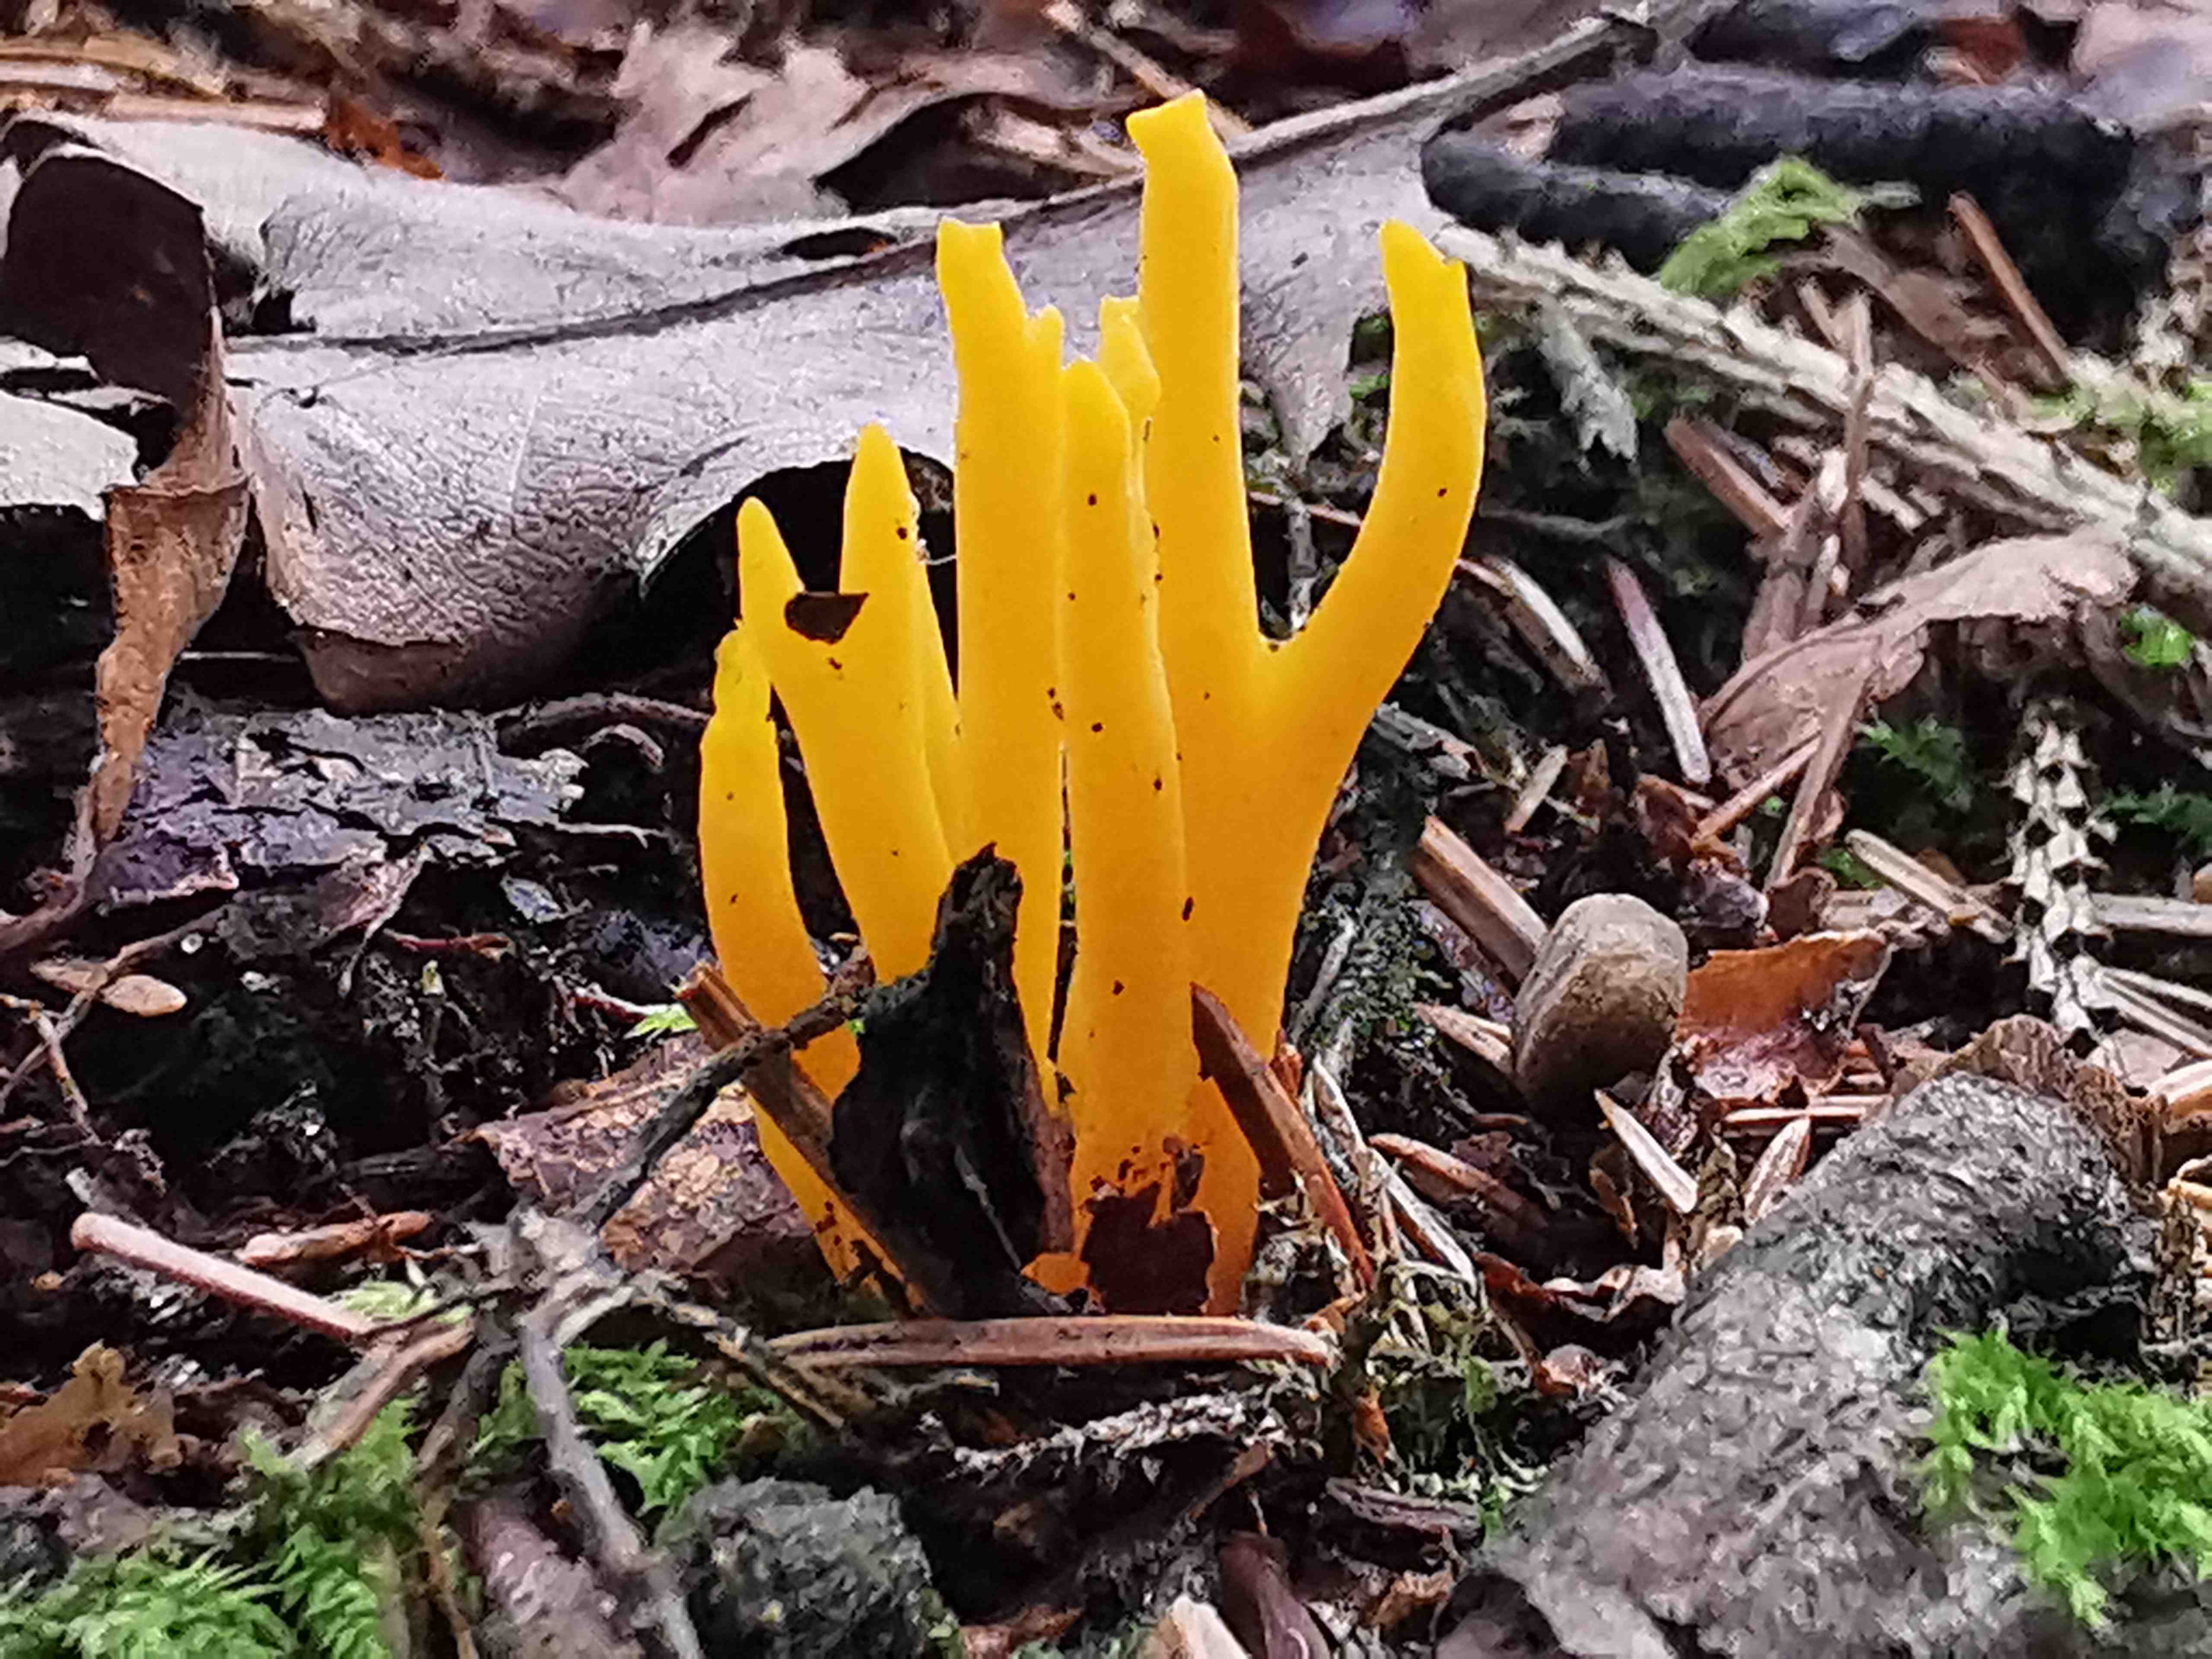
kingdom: Fungi
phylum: Basidiomycota
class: Dacrymycetes
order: Dacrymycetales
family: Dacrymycetaceae
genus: Calocera
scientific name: Calocera viscosa
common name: almindelig guldgaffel
